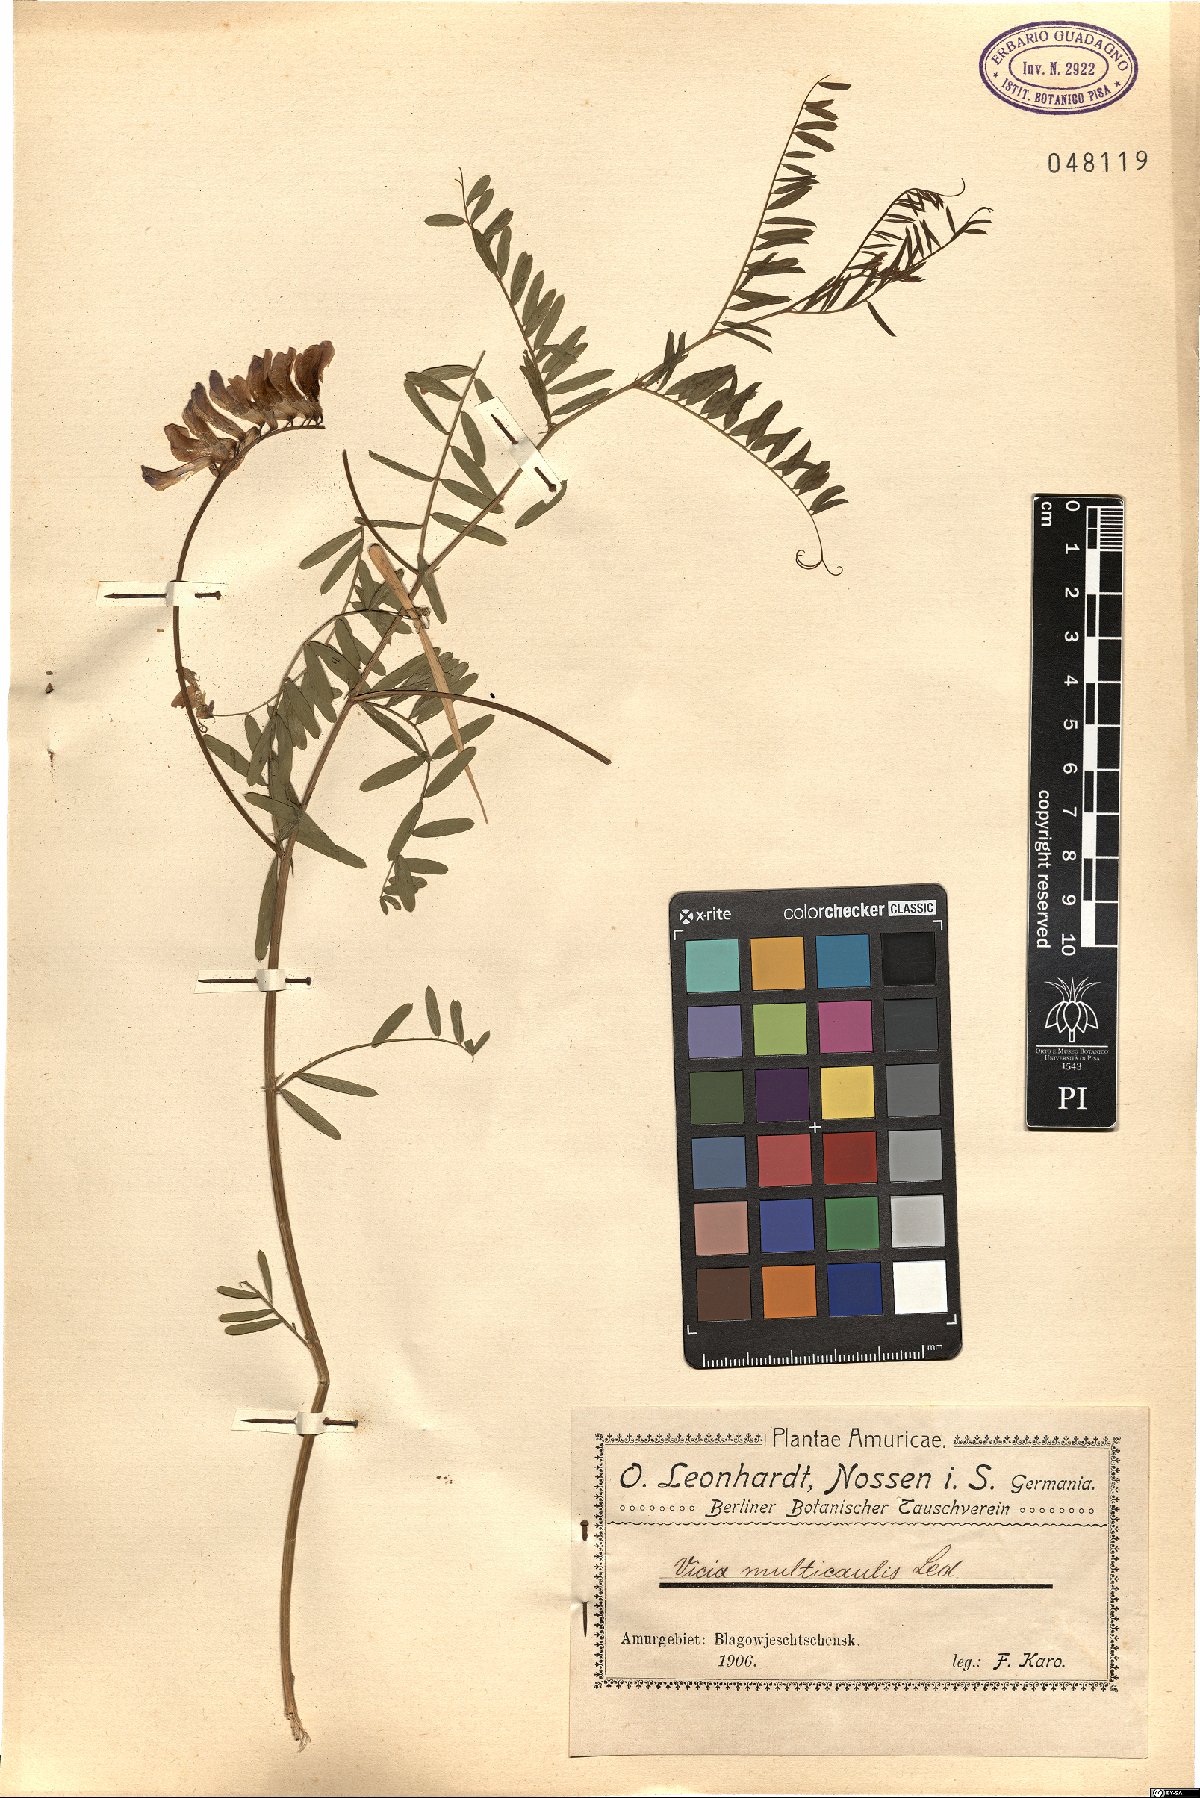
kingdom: Plantae
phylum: Tracheophyta
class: Magnoliopsida
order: Fabales
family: Fabaceae
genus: Vicia
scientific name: Vicia multicaulis
